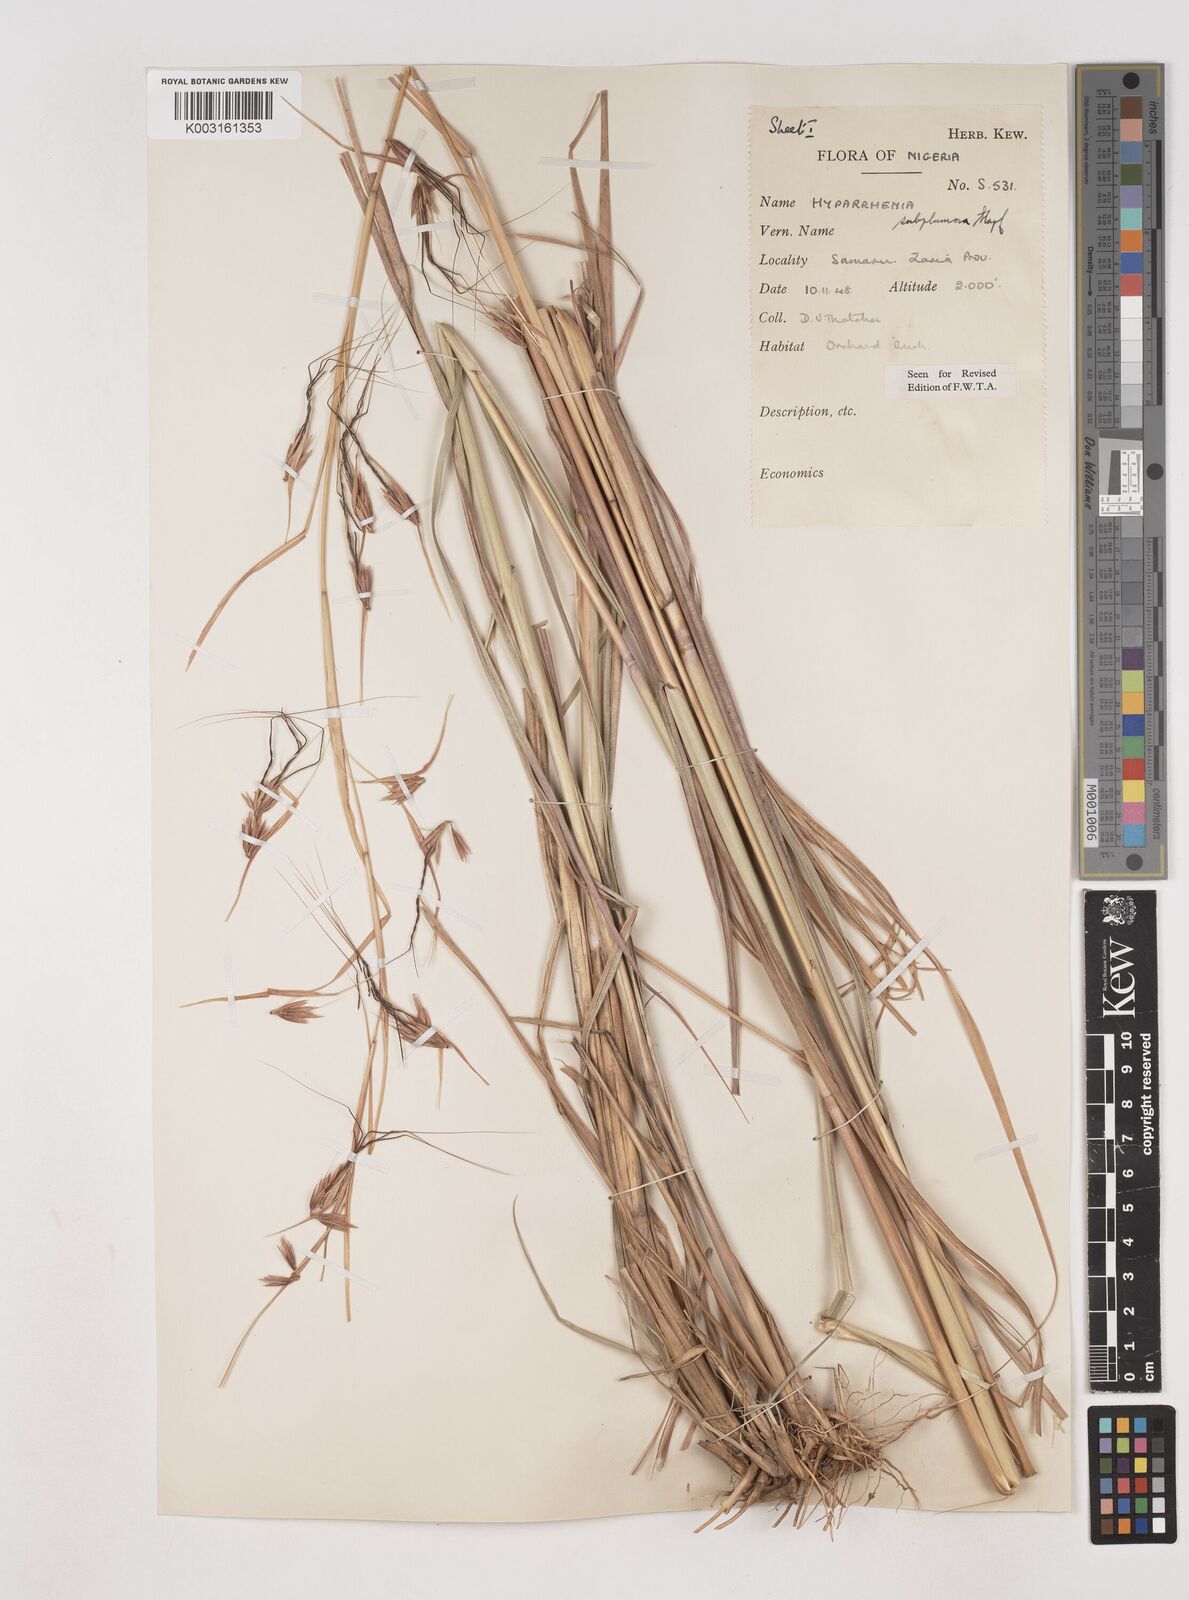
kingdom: Plantae
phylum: Tracheophyta
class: Liliopsida
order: Poales
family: Poaceae
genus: Hyparrhenia
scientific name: Hyparrhenia subplumosa
